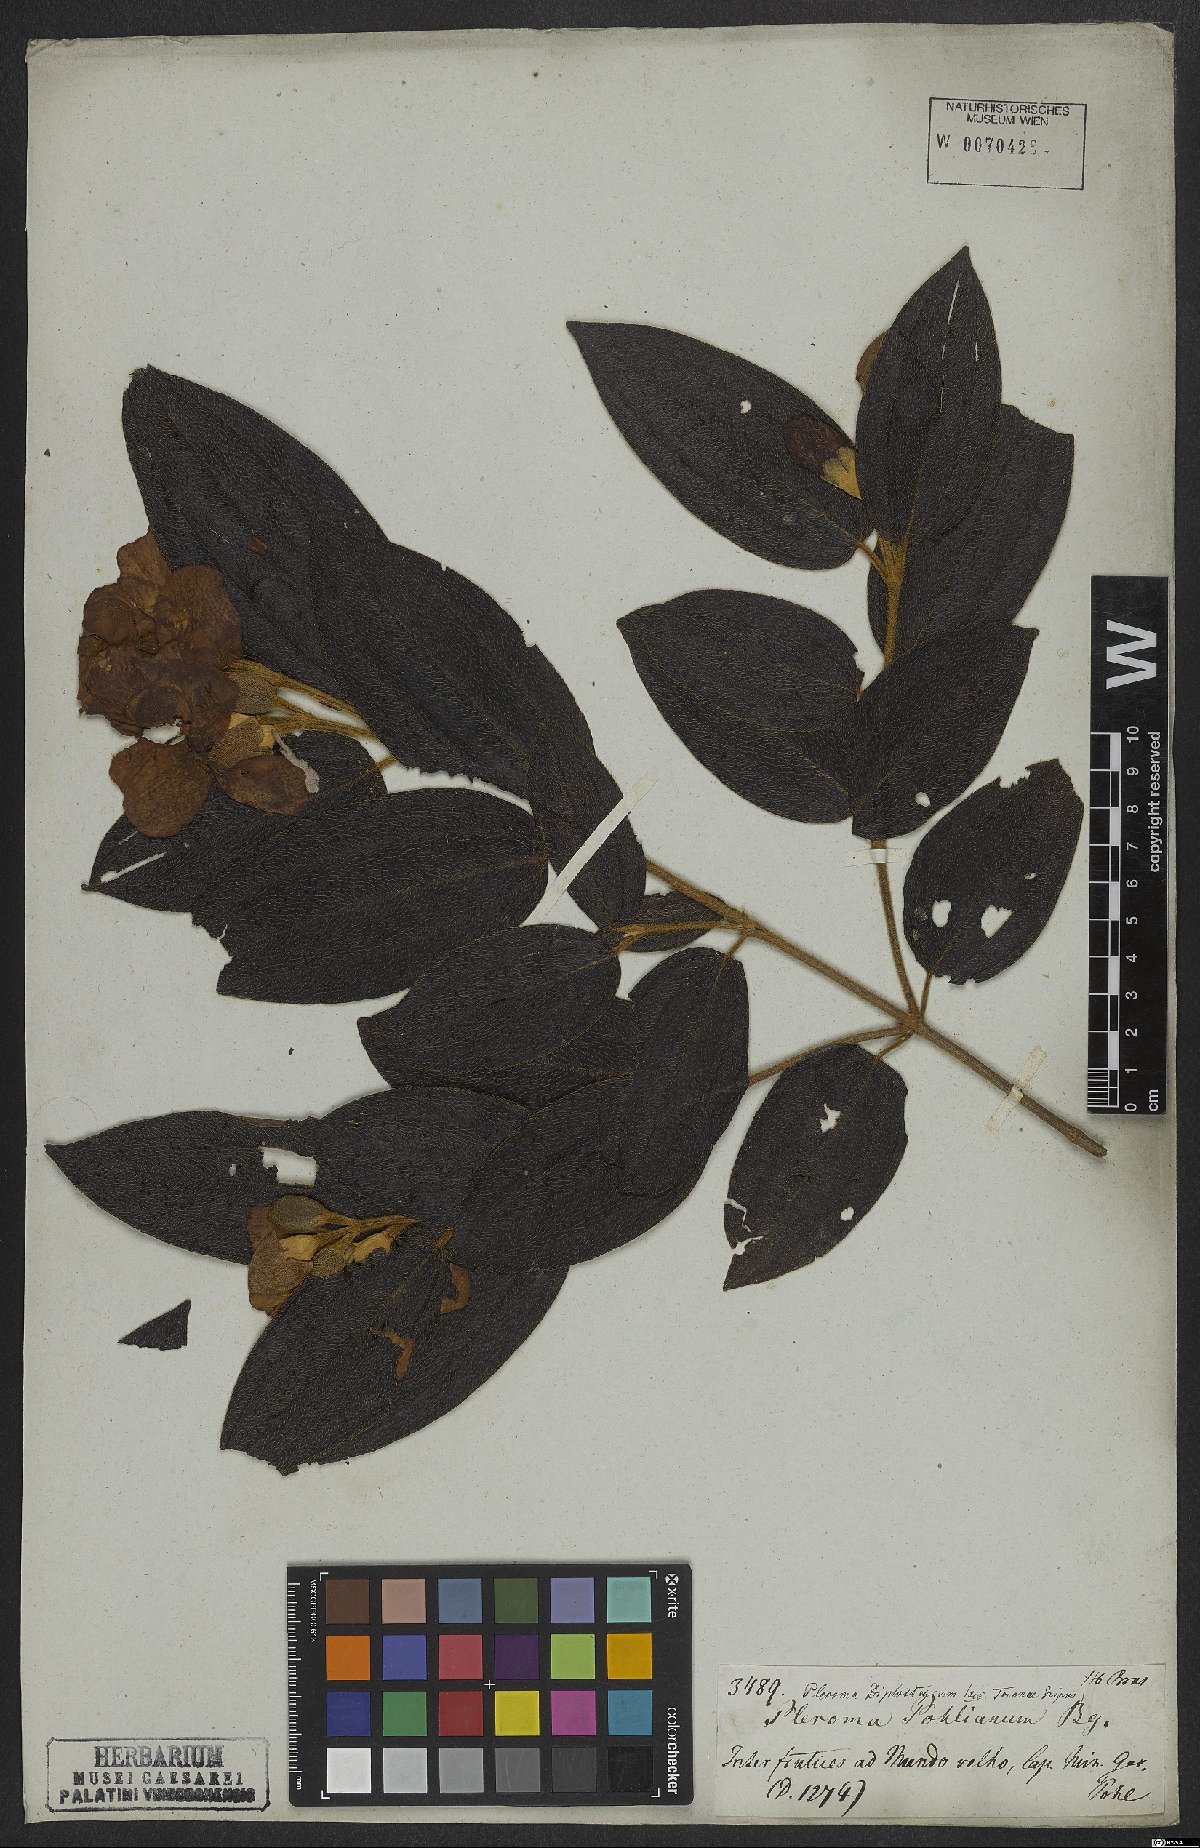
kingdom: Plantae
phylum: Tracheophyta
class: Magnoliopsida
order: Myrtales
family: Melastomataceae
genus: Pleroma
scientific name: Pleroma canescens
